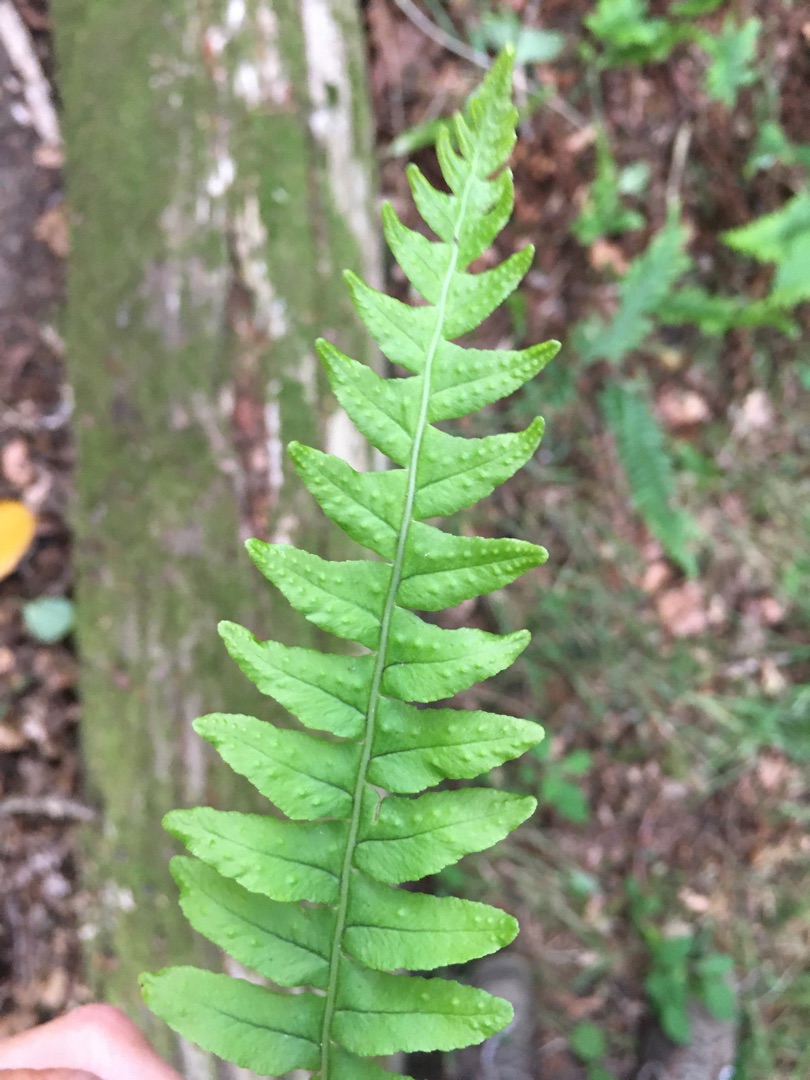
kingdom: Plantae
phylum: Tracheophyta
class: Polypodiopsida
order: Polypodiales
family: Polypodiaceae
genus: Polypodium
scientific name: Polypodium vulgare
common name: Almindelig engelsød
